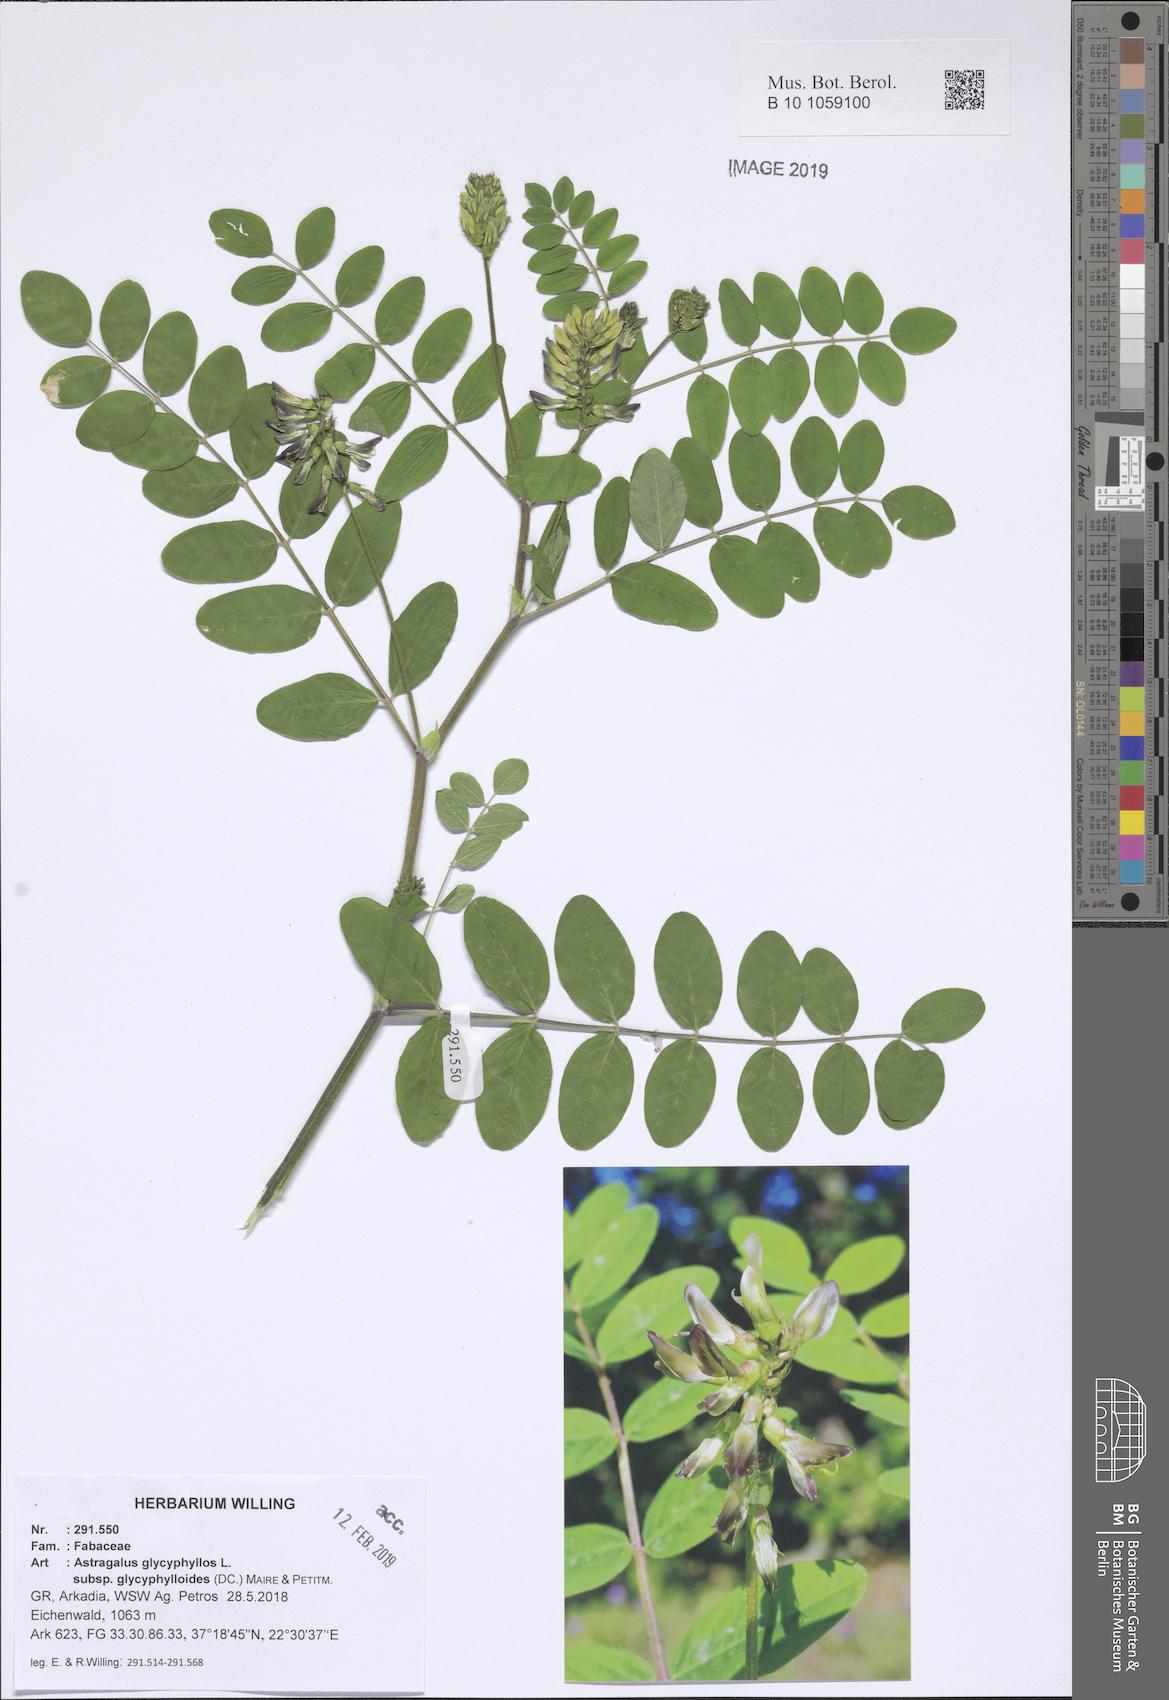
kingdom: Plantae
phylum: Tracheophyta
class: Magnoliopsida
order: Fabales
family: Fabaceae
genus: Astragalus
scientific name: Astragalus glycyphylloides
